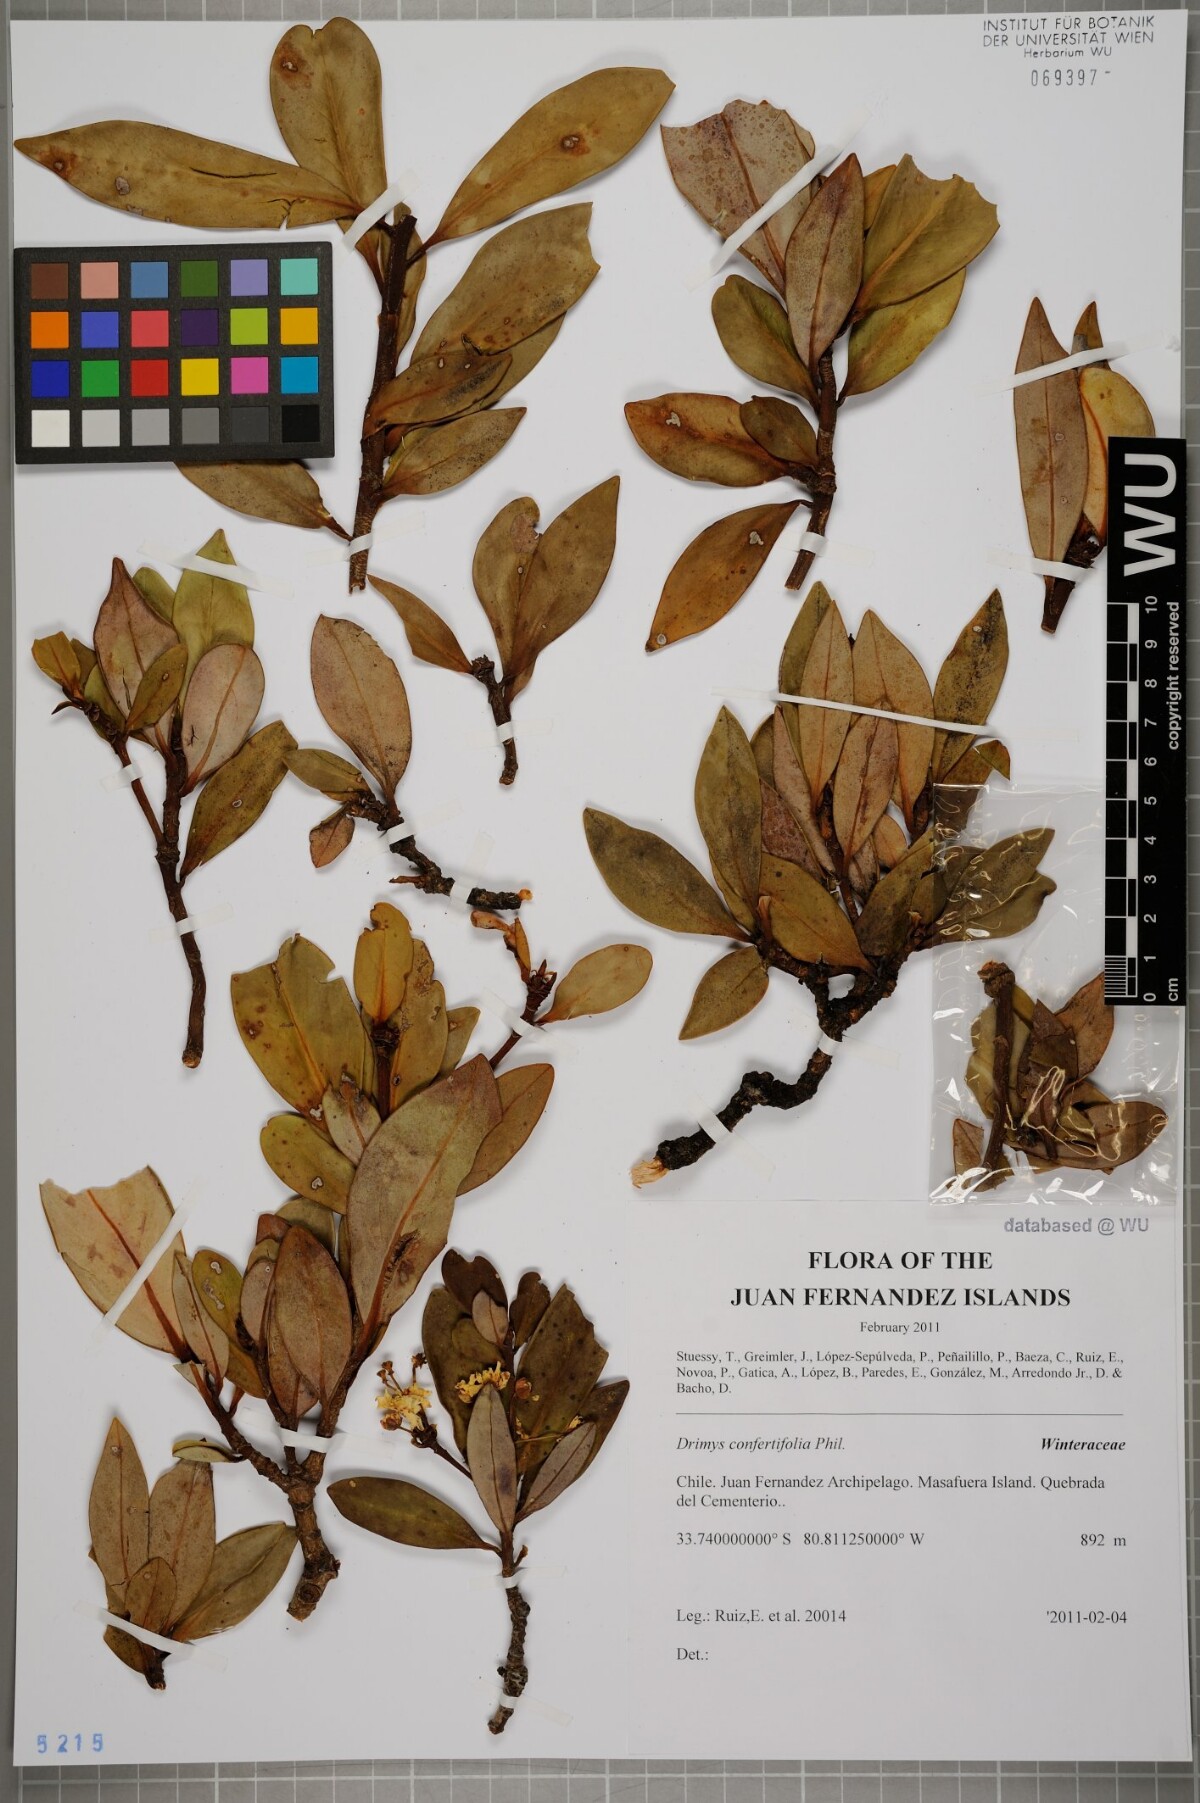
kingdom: Plantae
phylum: Tracheophyta
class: Magnoliopsida
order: Canellales
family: Winteraceae
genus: Drimys
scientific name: Drimys confertiflora
